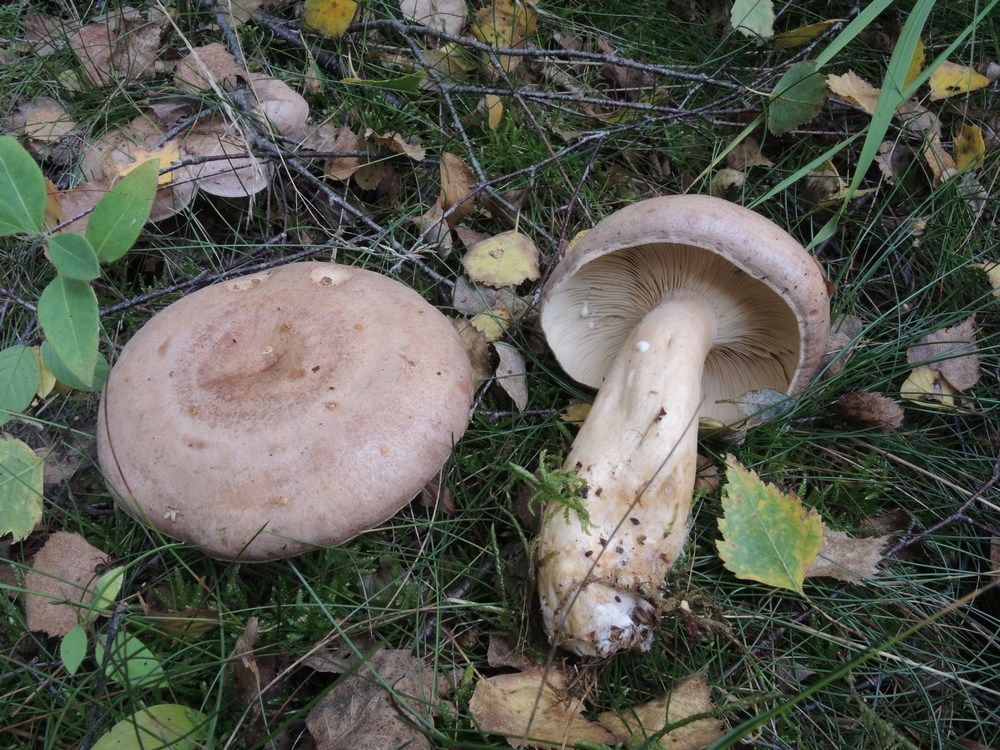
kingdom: Fungi
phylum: Basidiomycota
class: Agaricomycetes
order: Russulales
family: Russulaceae
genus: Lactarius
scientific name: Lactarius trivialis
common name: nordisk mælkehat
